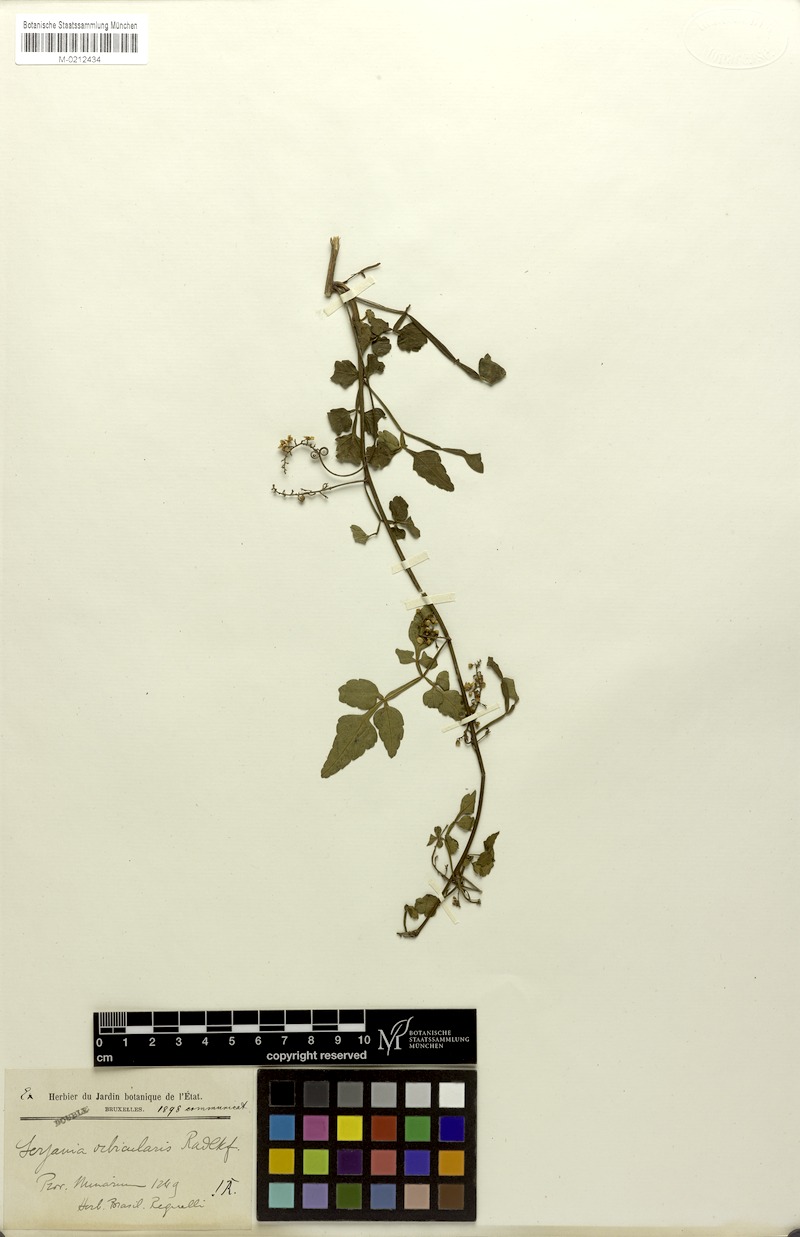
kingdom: Plantae
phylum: Tracheophyta
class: Magnoliopsida
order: Sapindales
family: Sapindaceae
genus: Serjania
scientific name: Serjania orbicularis
